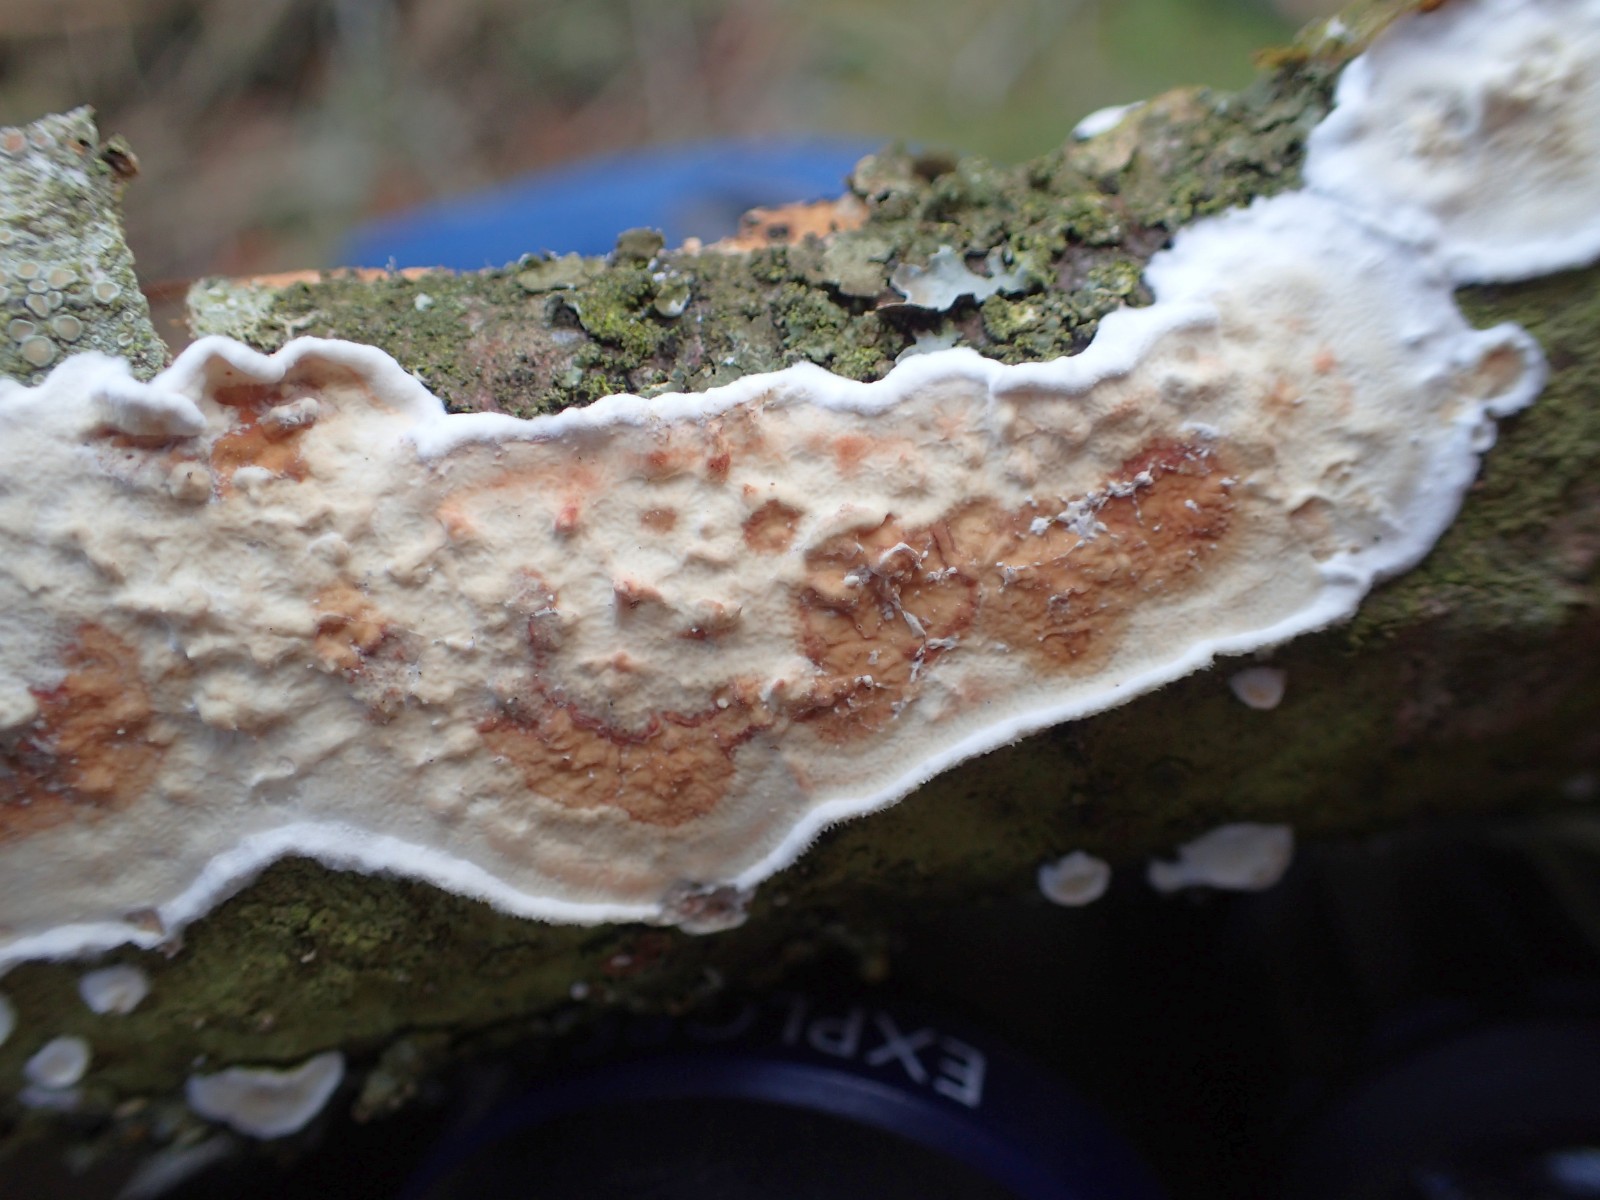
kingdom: Fungi
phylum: Basidiomycota
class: Agaricomycetes
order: Polyporales
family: Irpicaceae
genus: Byssomerulius
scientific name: Byssomerulius corium
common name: læder-åresvamp
